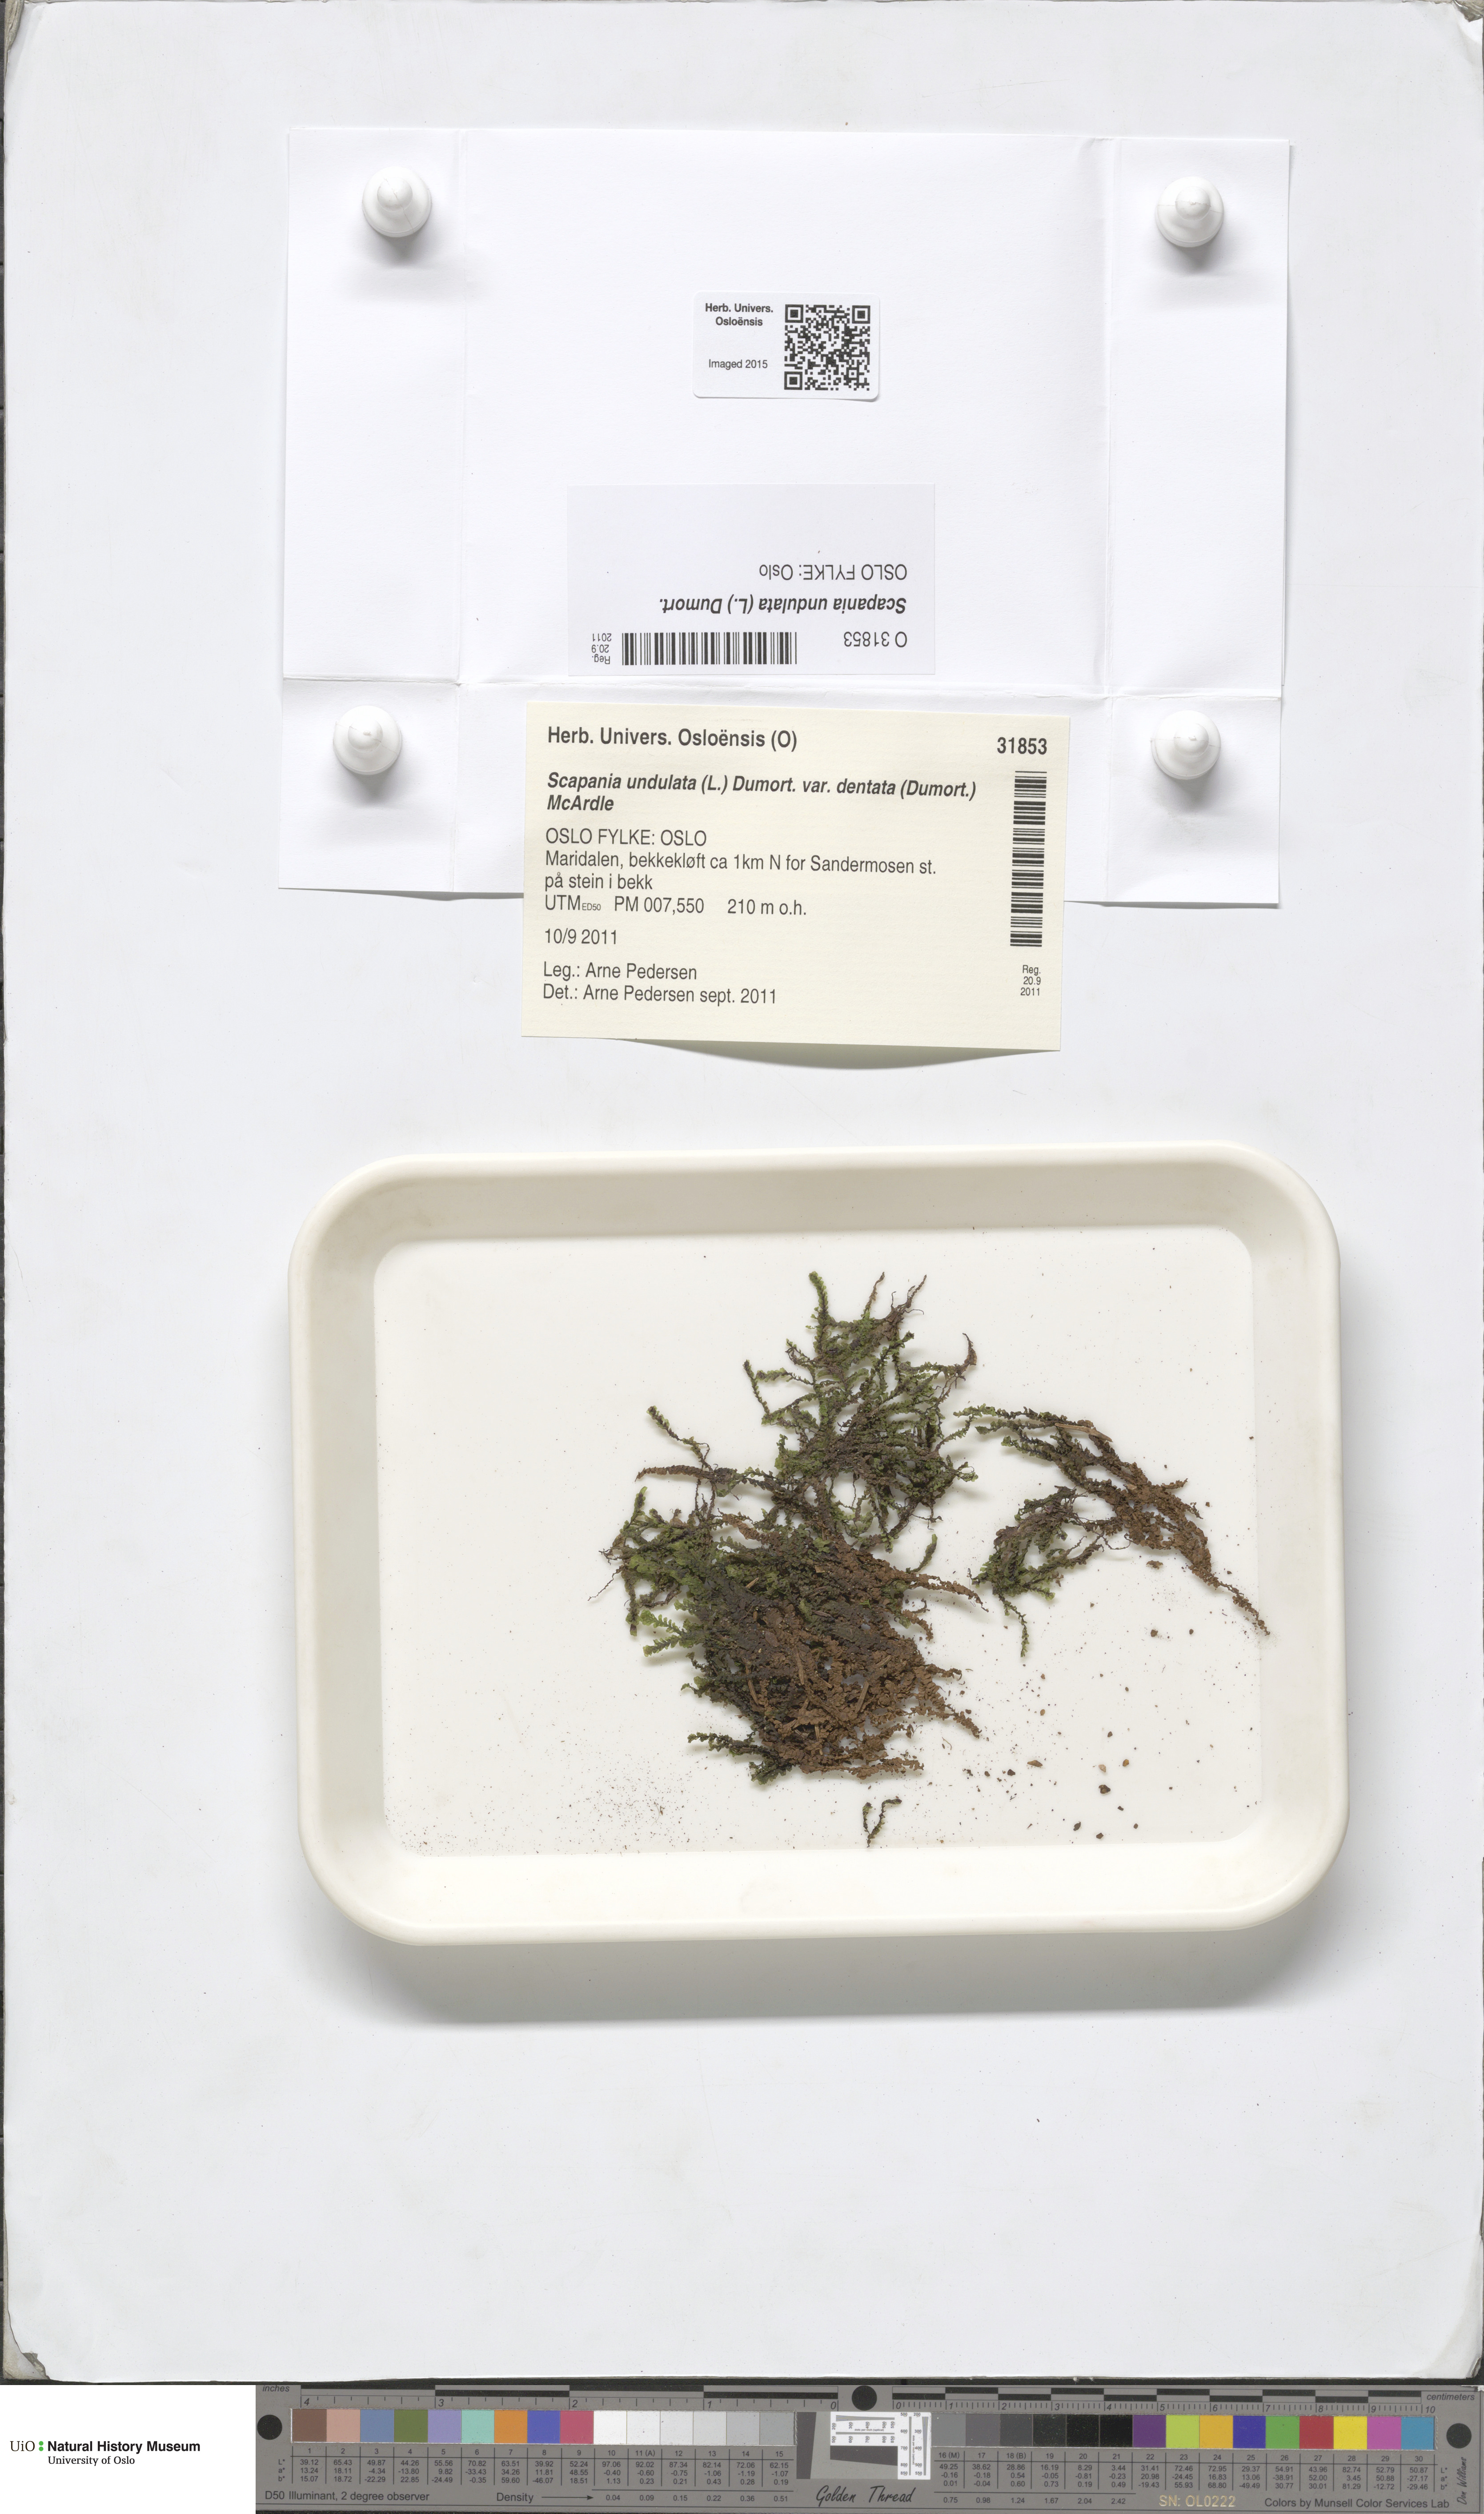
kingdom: Plantae
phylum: Marchantiophyta
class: Jungermanniopsida
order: Jungermanniales
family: Scapaniaceae
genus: Scapania
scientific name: Scapania undulata
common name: Water earwort
